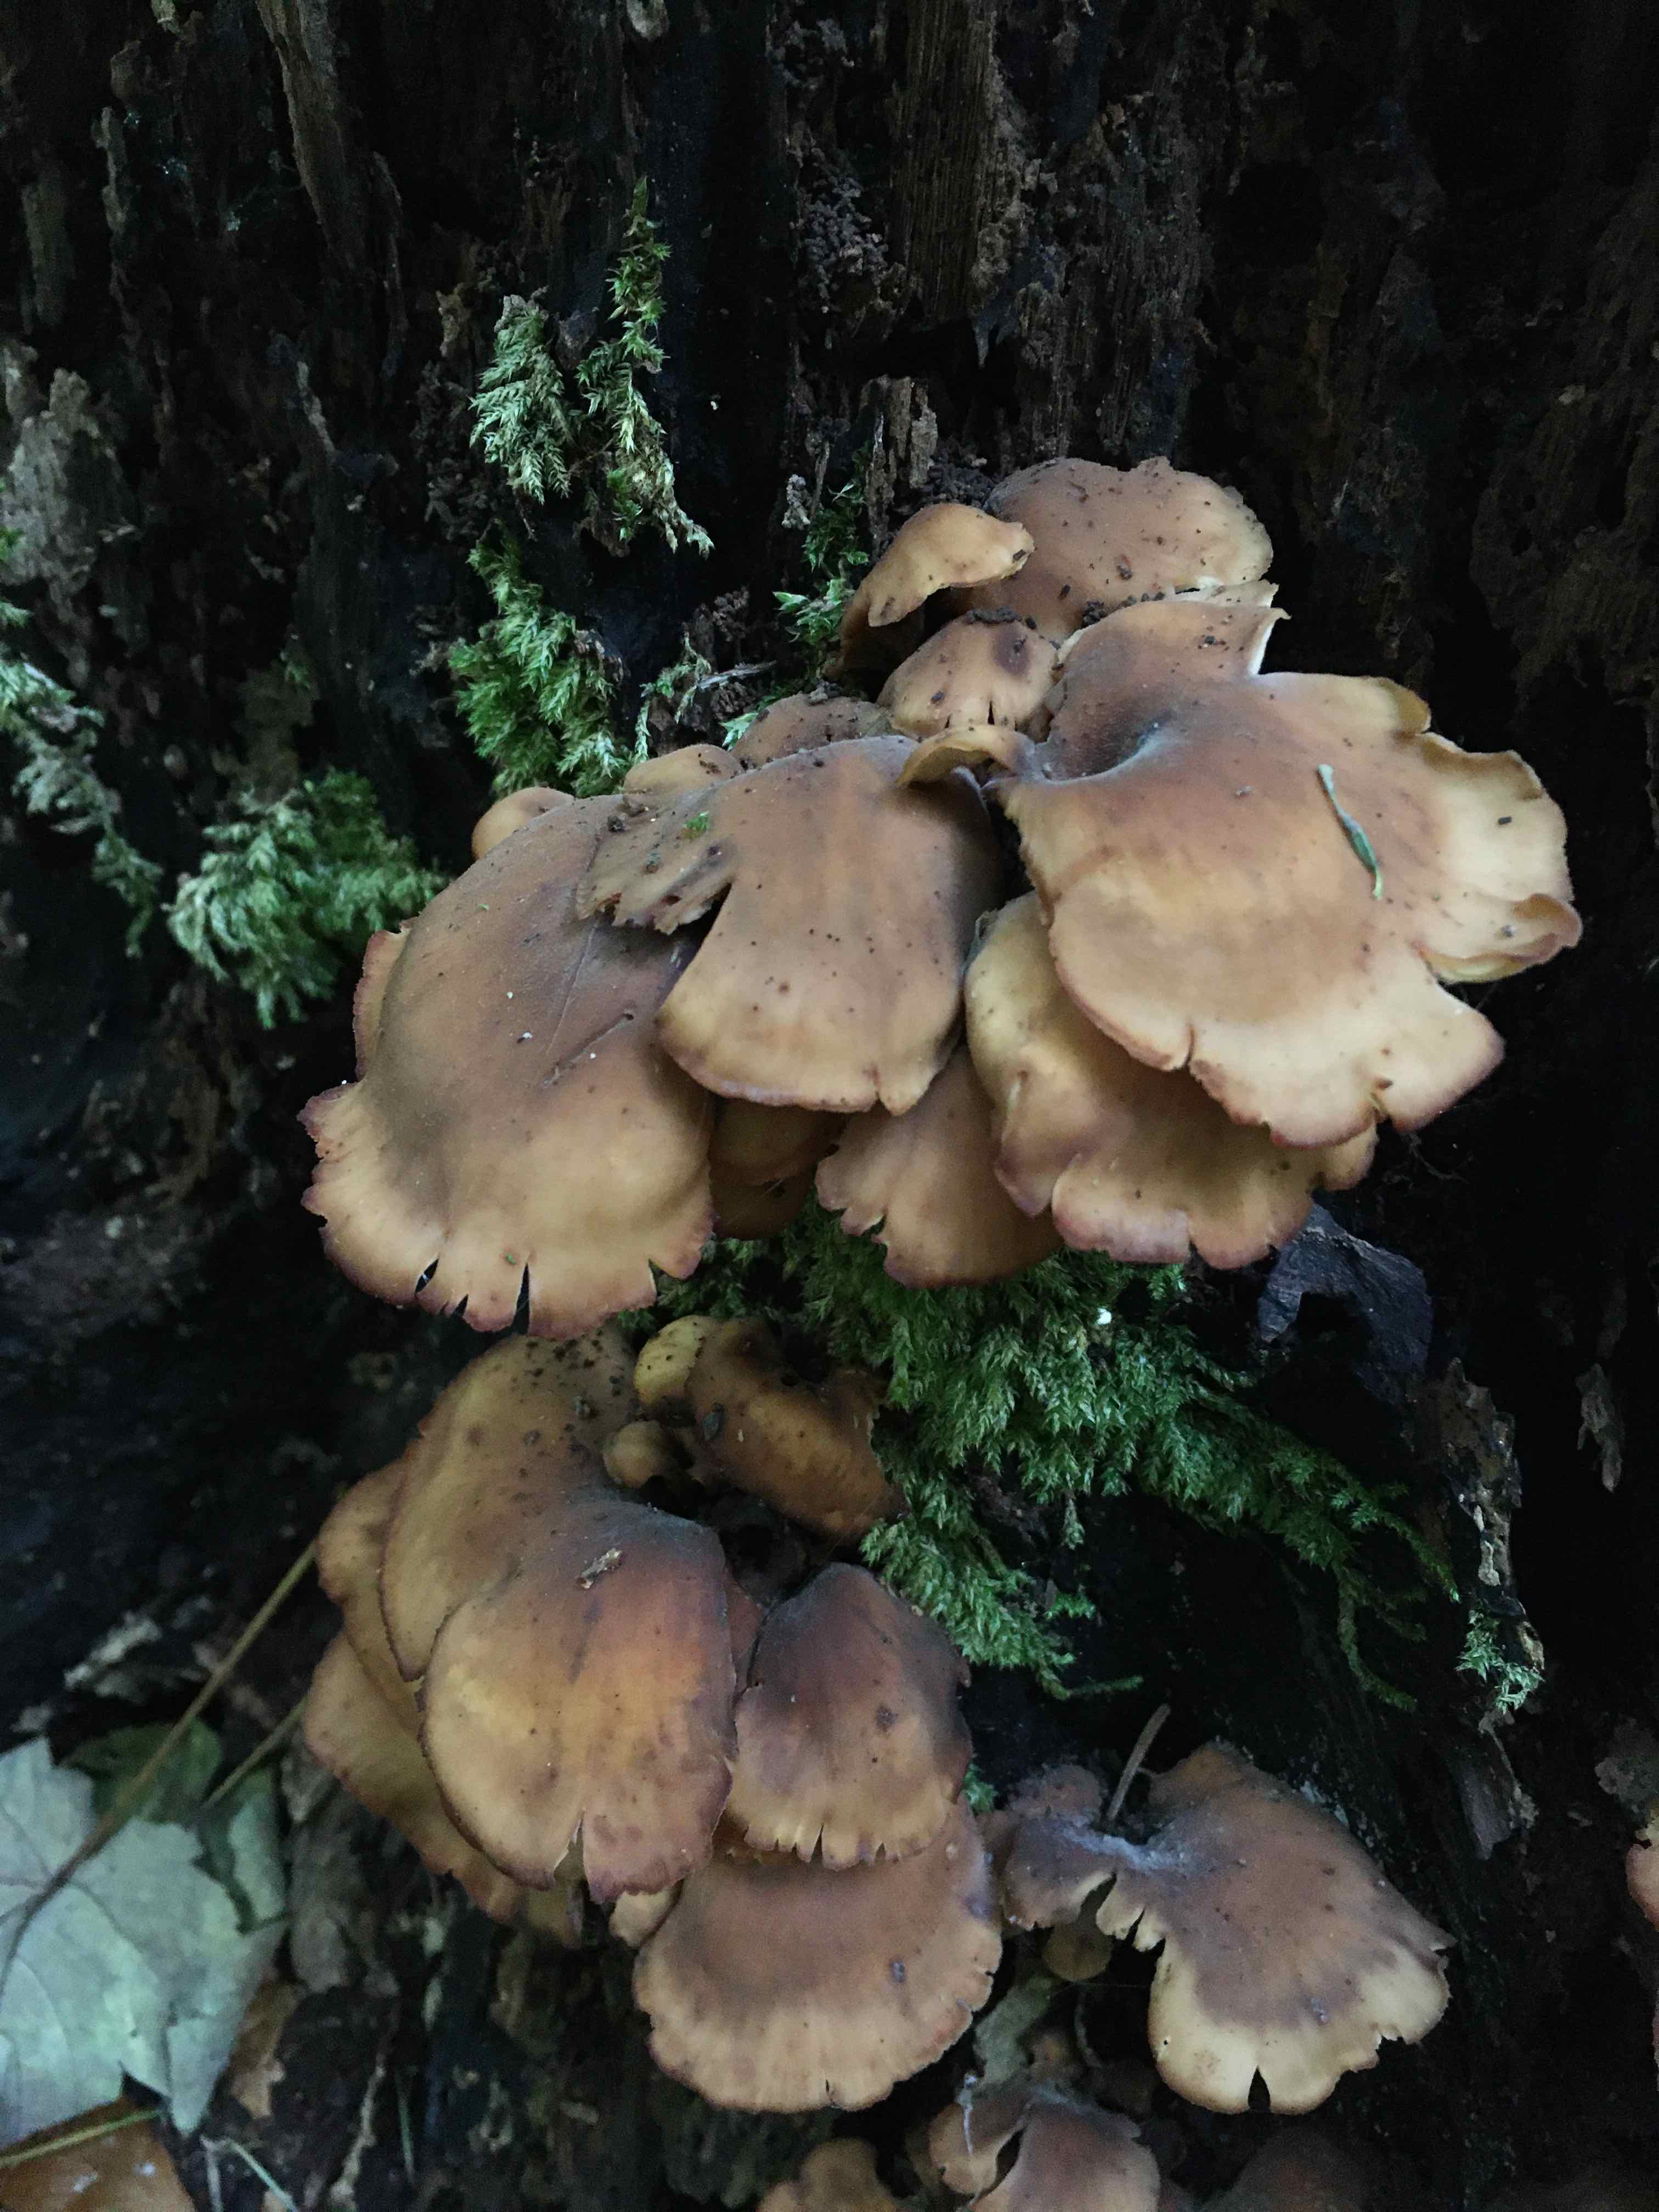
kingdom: Fungi
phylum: Basidiomycota
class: Agaricomycetes
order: Russulales
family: Auriscalpiaceae
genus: Lentinellus
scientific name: Lentinellus cochleatus
